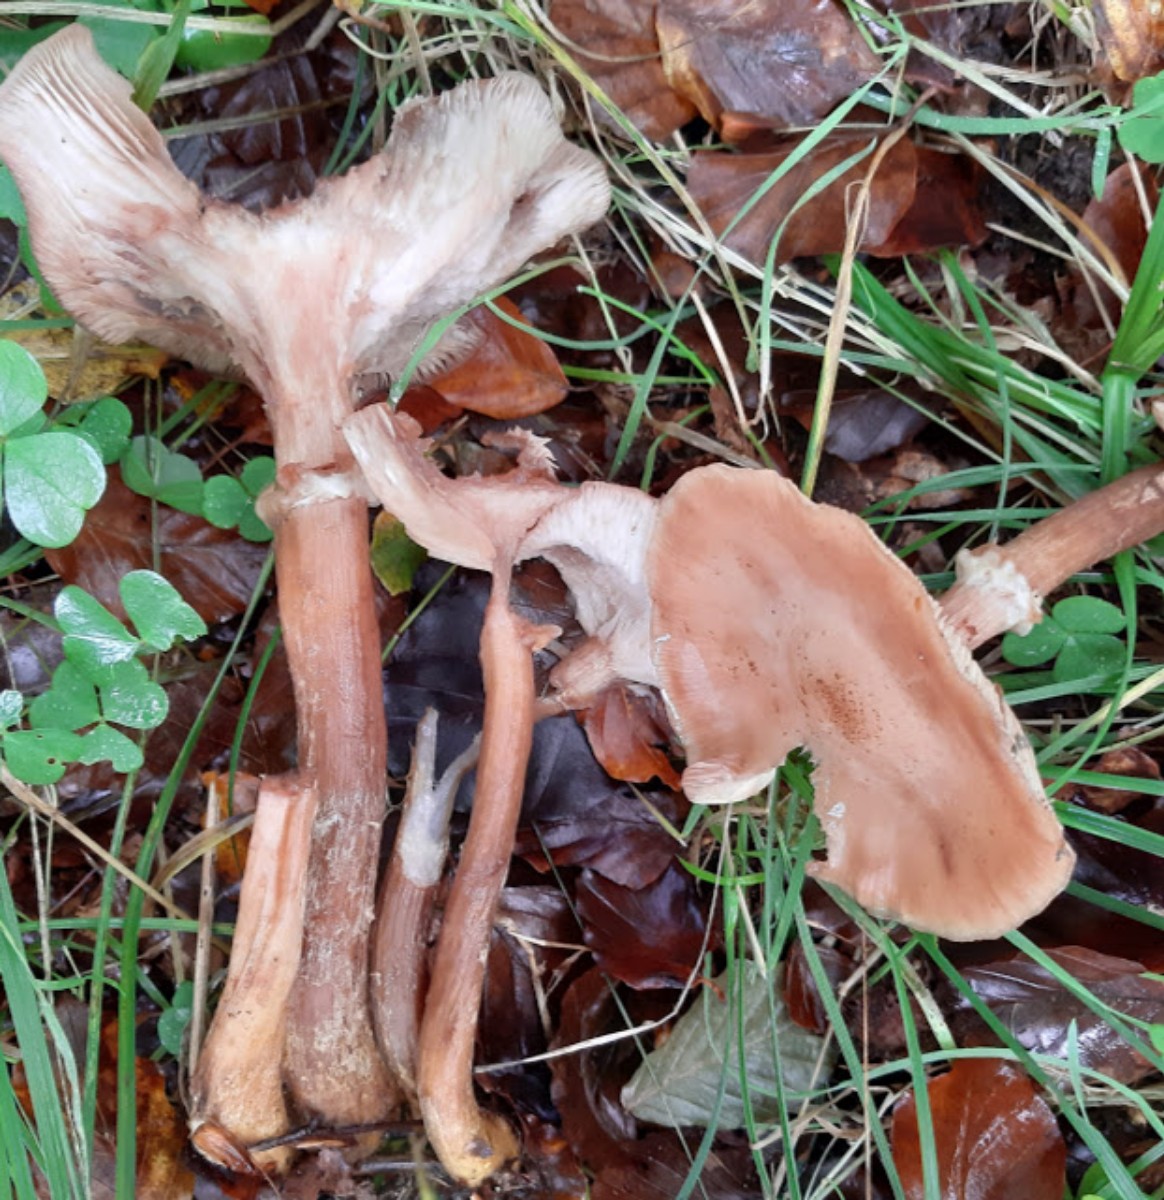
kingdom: Fungi
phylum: Basidiomycota
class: Agaricomycetes
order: Agaricales
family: Physalacriaceae
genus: Armillaria
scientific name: Armillaria lutea
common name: køllestokket honningsvamp
